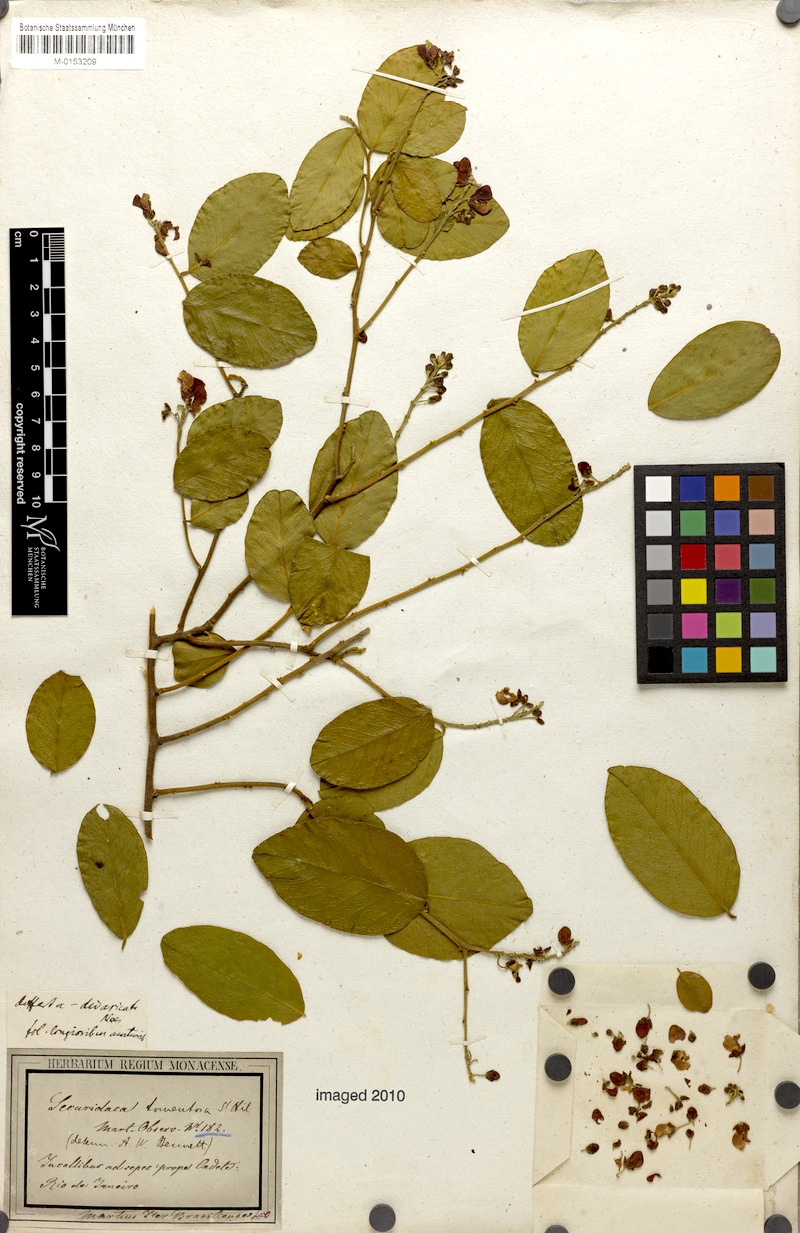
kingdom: Plantae
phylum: Tracheophyta
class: Magnoliopsida
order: Fabales
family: Polygalaceae
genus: Securidaca
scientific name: Securidaca tomentosa
